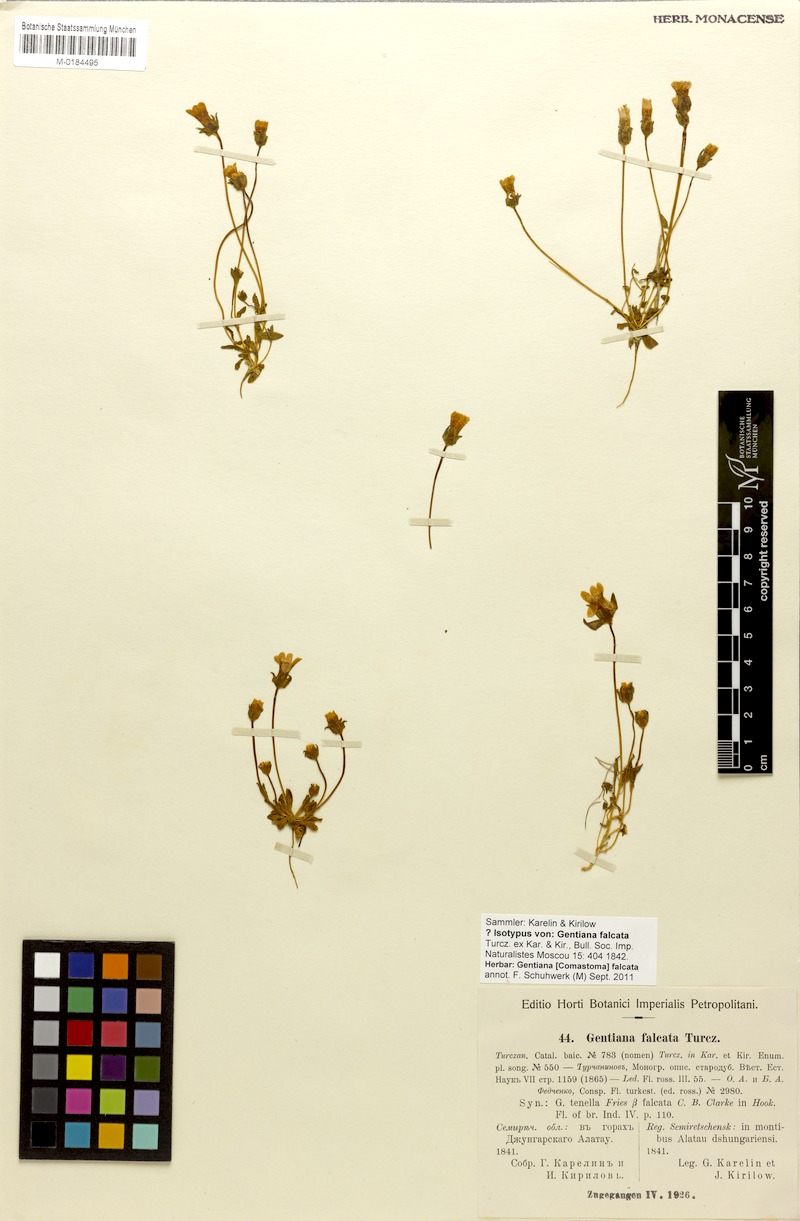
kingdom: Plantae
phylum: Tracheophyta
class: Magnoliopsida
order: Gentianales
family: Gentianaceae
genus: Comastoma
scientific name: Comastoma falcatum
